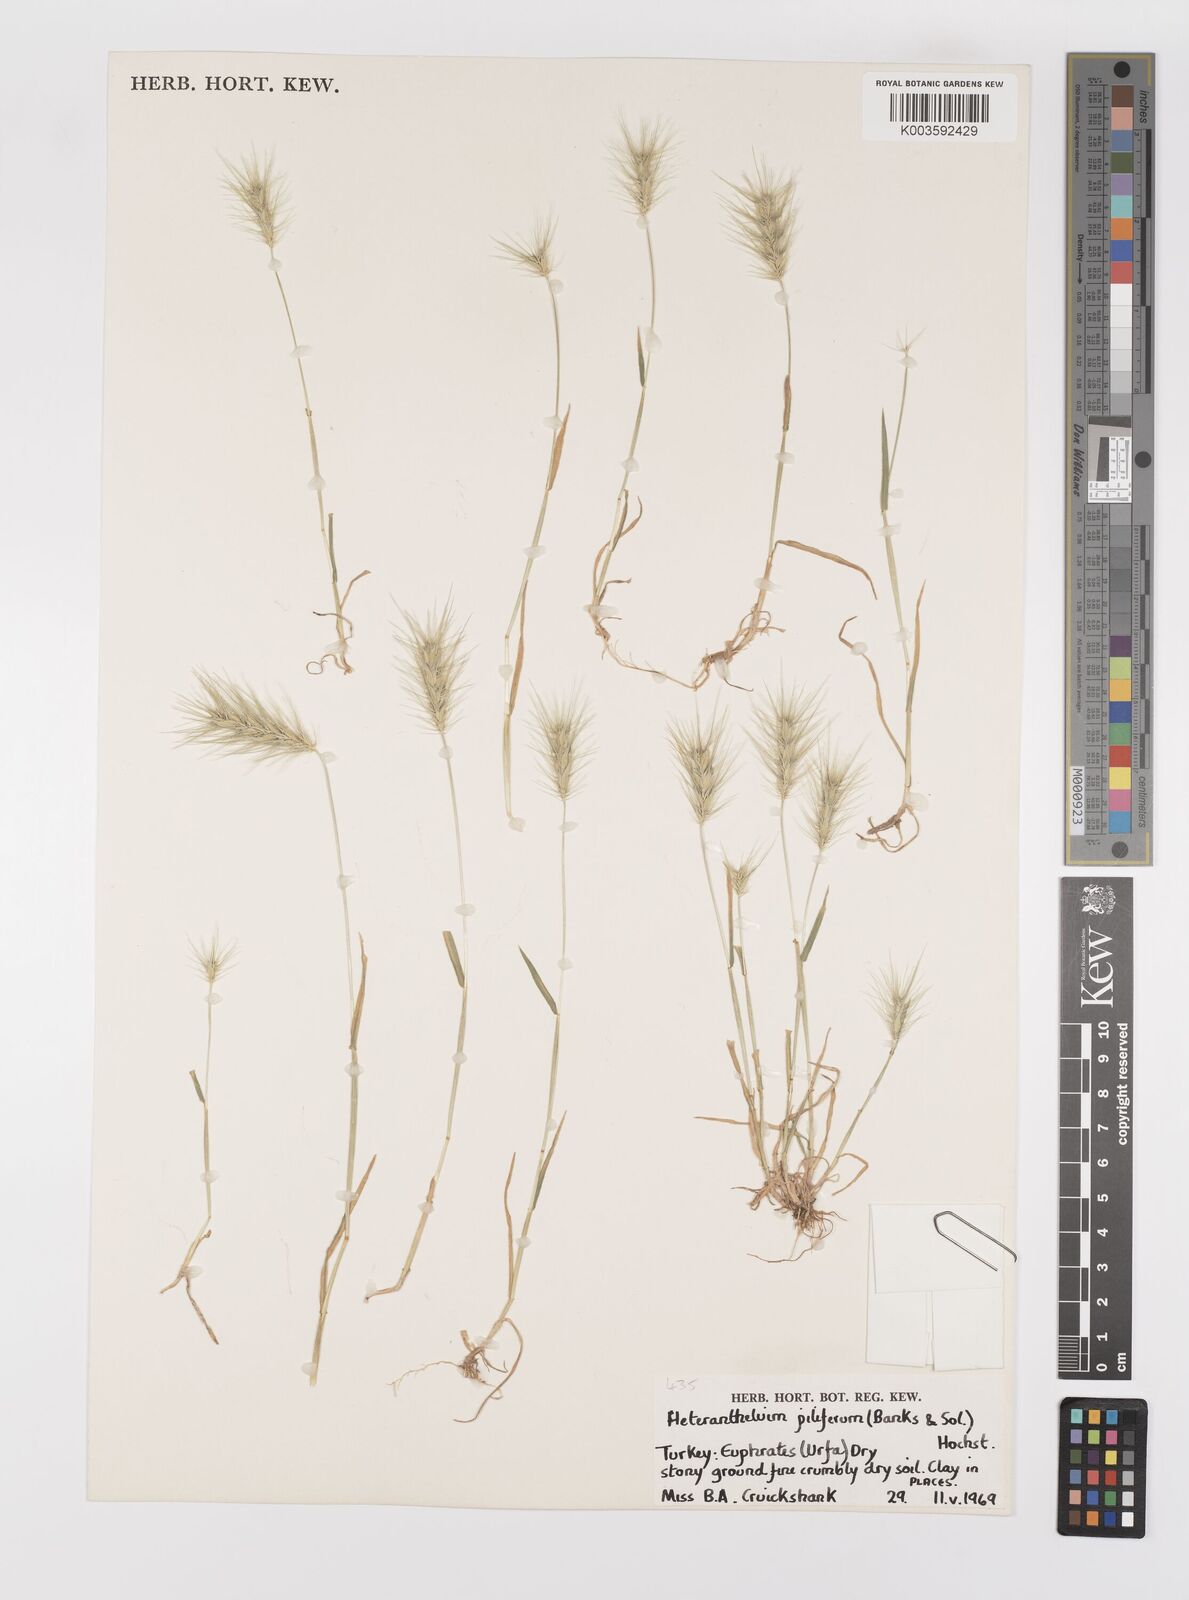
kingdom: Plantae
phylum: Tracheophyta
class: Liliopsida
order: Poales
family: Poaceae
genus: Heteranthelium
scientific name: Heteranthelium piliferum
